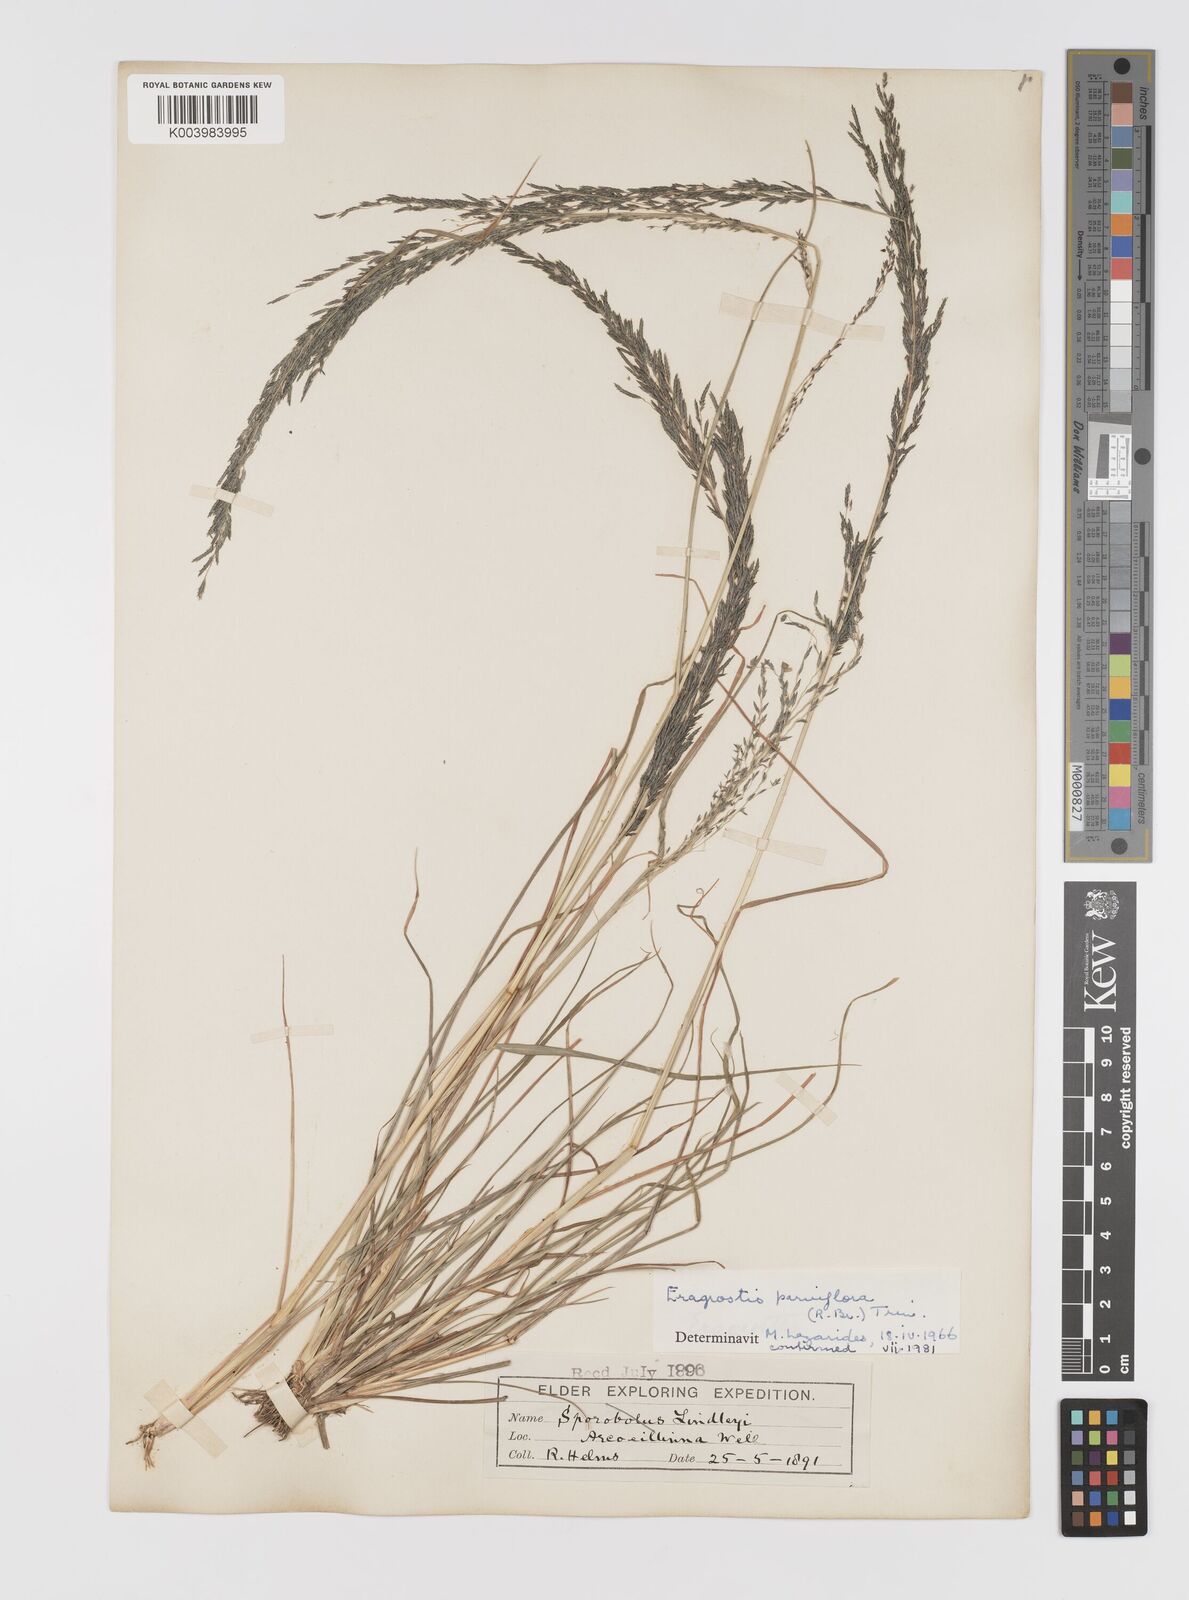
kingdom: Plantae
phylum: Tracheophyta
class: Liliopsida
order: Poales
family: Poaceae
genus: Eragrostis
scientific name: Eragrostis parviflora
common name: Weeping love-grass
